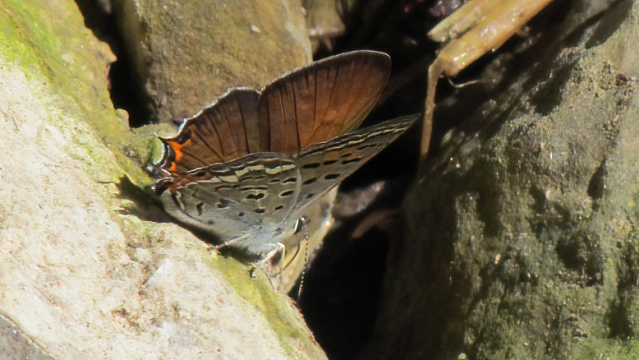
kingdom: Animalia
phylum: Arthropoda
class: Insecta
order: Lepidoptera
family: Sesiidae
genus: Sesia
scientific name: Sesia Lycaena arota
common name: Tailed Copper
